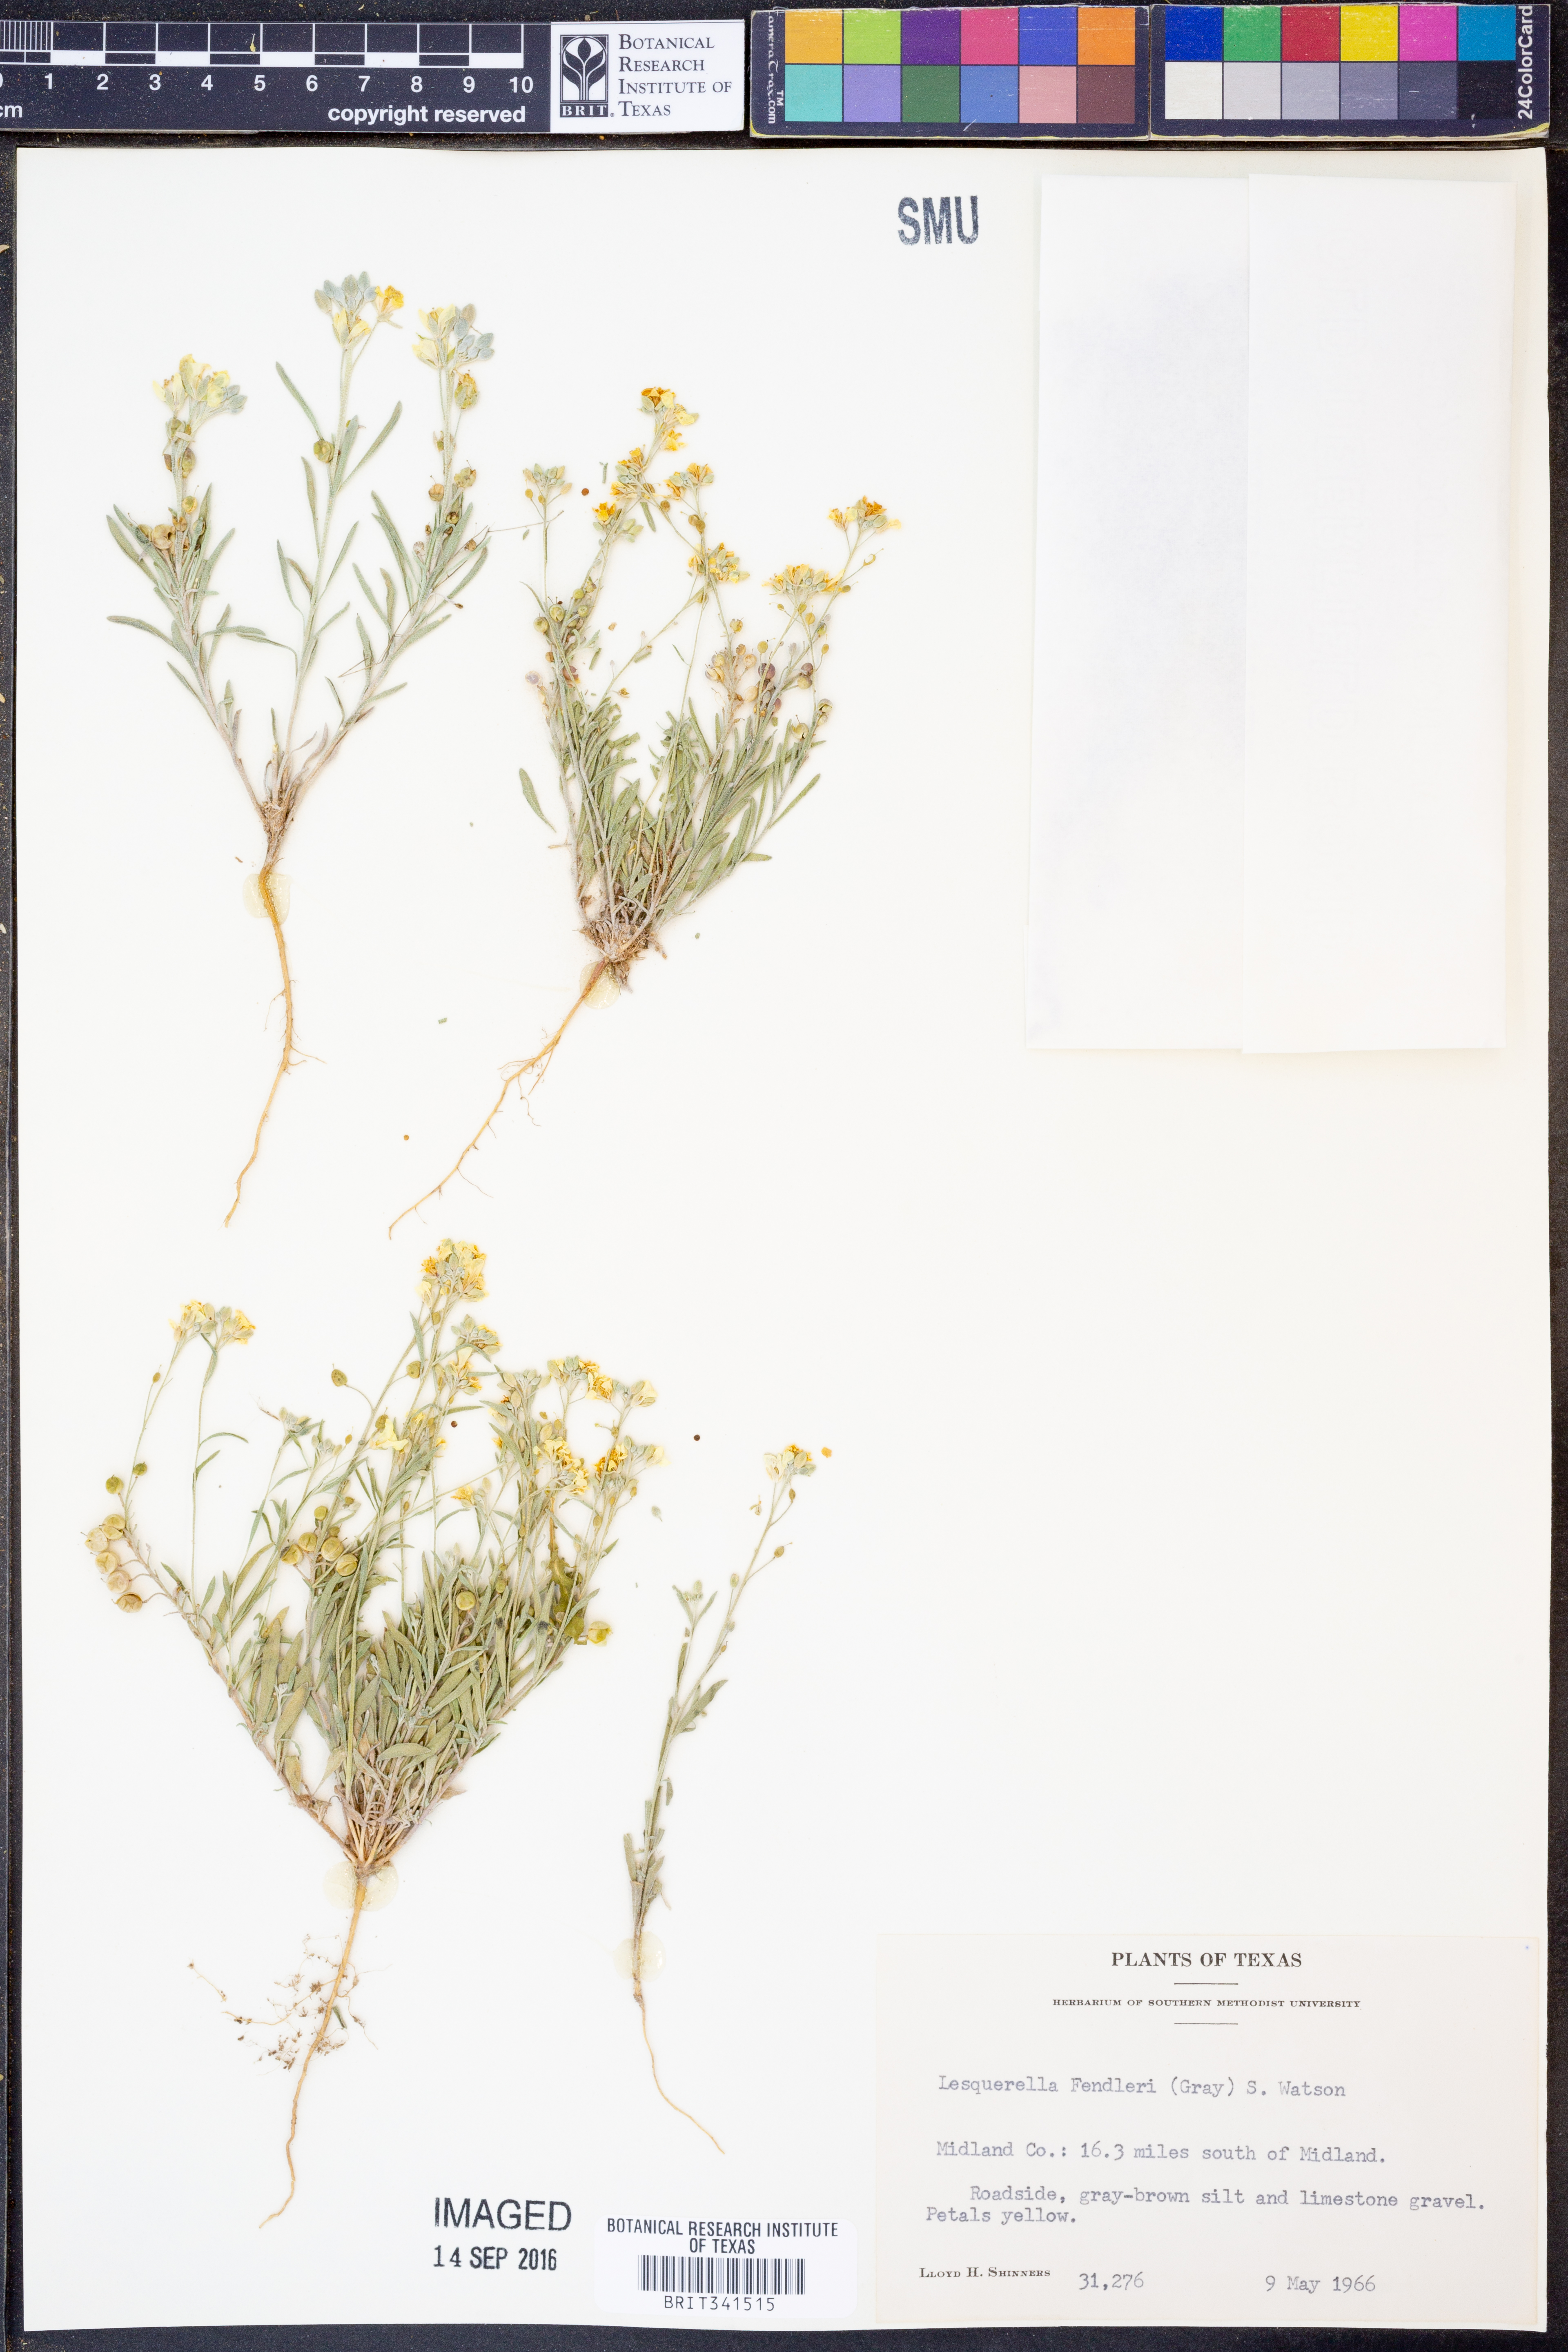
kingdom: Plantae
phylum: Tracheophyta
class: Magnoliopsida
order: Brassicales
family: Brassicaceae
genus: Physaria
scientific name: Physaria fendleri
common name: Fendler's bladderpod
